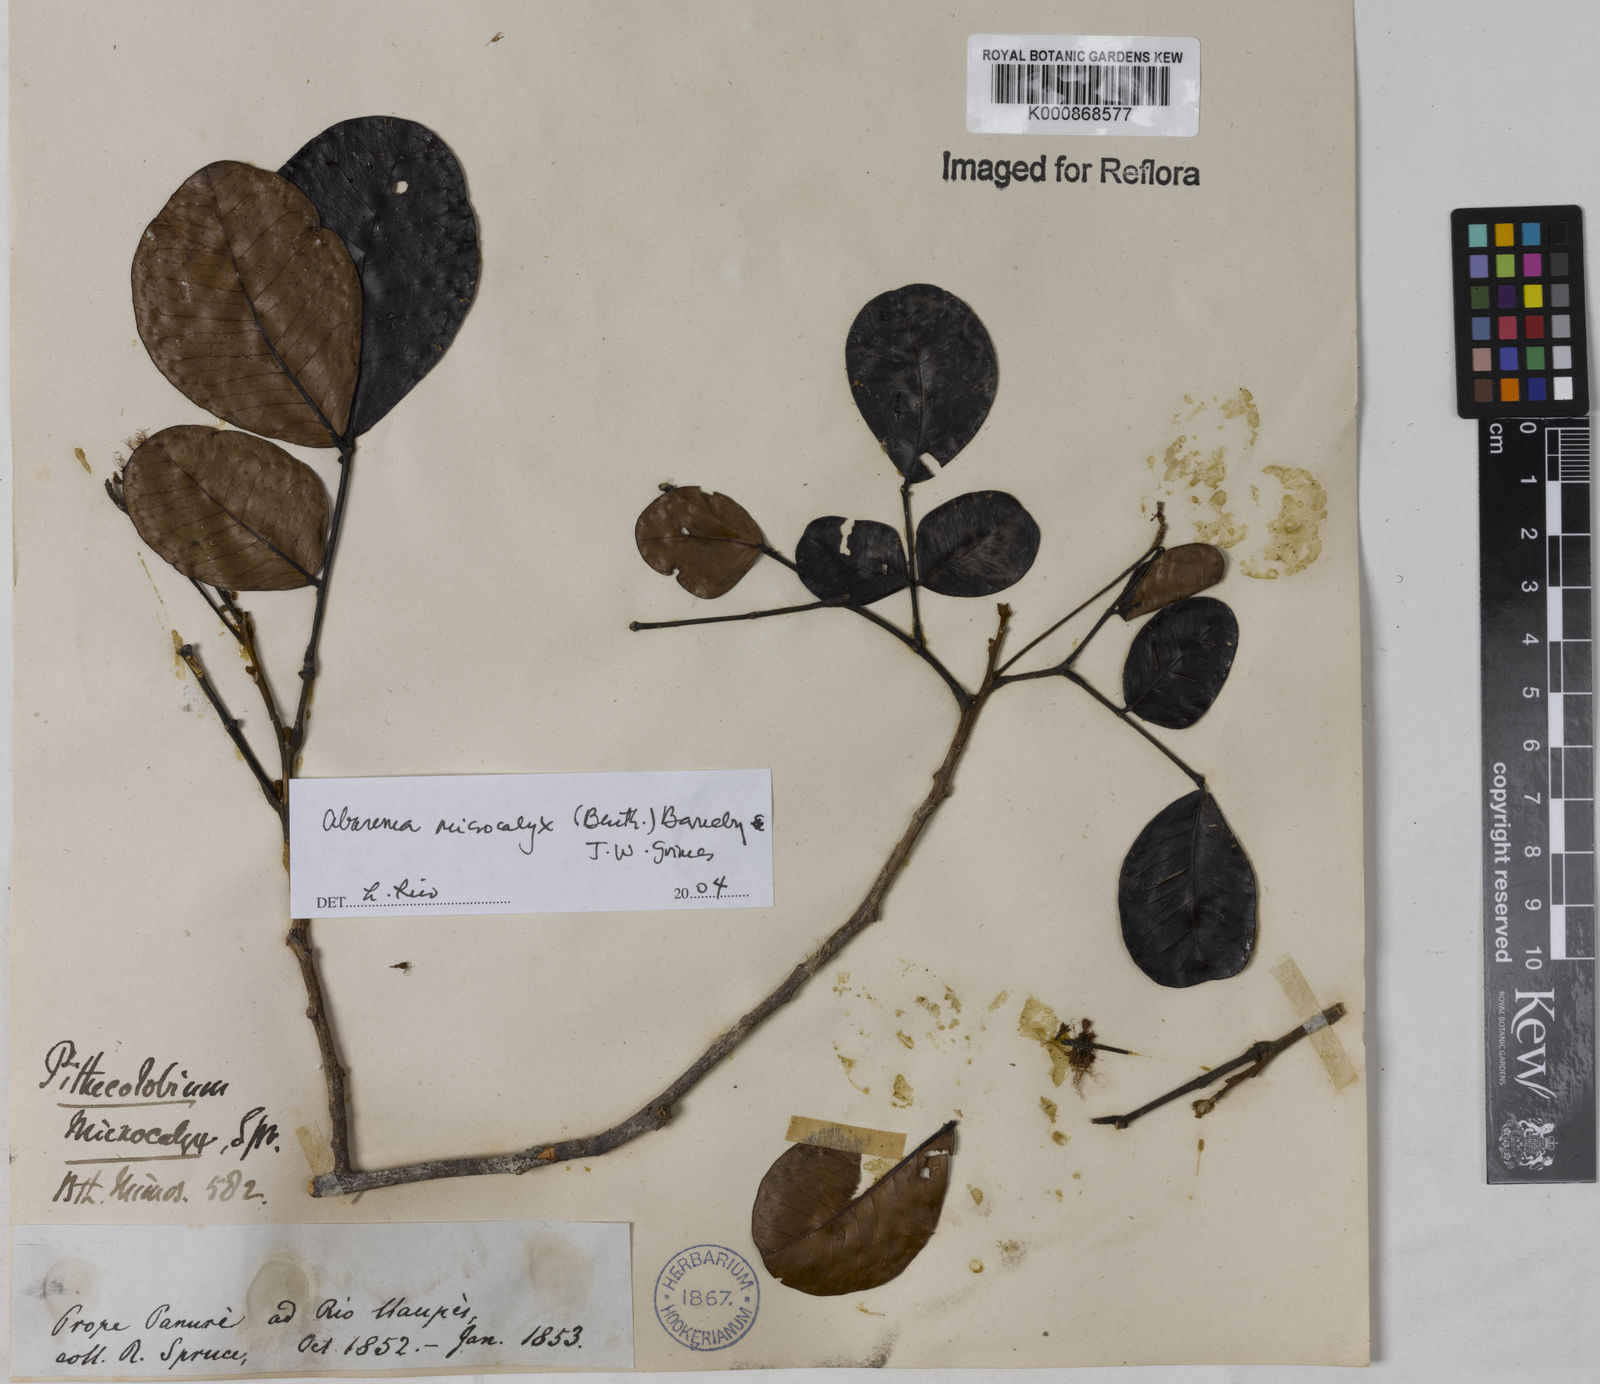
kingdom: Plantae
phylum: Tracheophyta
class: Magnoliopsida
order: Fabales
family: Fabaceae
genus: Jupunba
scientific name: Jupunba microcalyx
